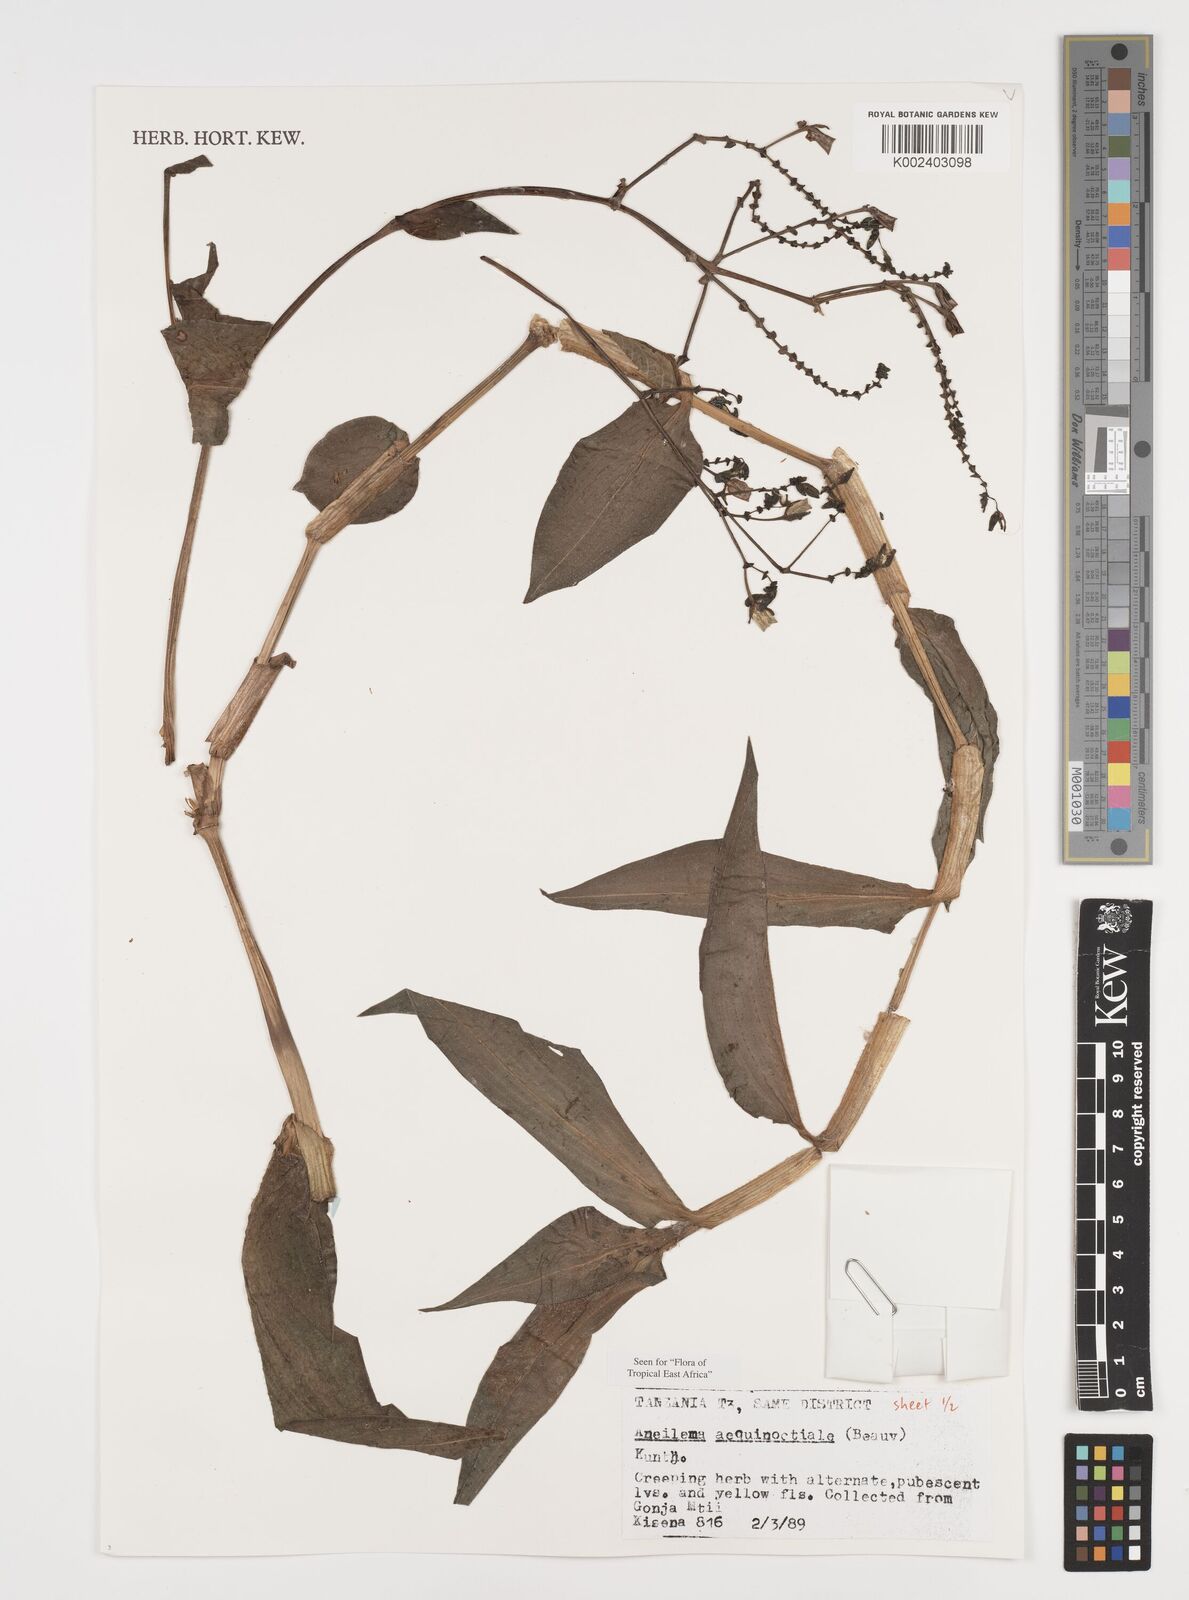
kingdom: Plantae
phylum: Tracheophyta
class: Liliopsida
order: Commelinales
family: Commelinaceae
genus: Aneilema
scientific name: Aneilema aequinoctiale
